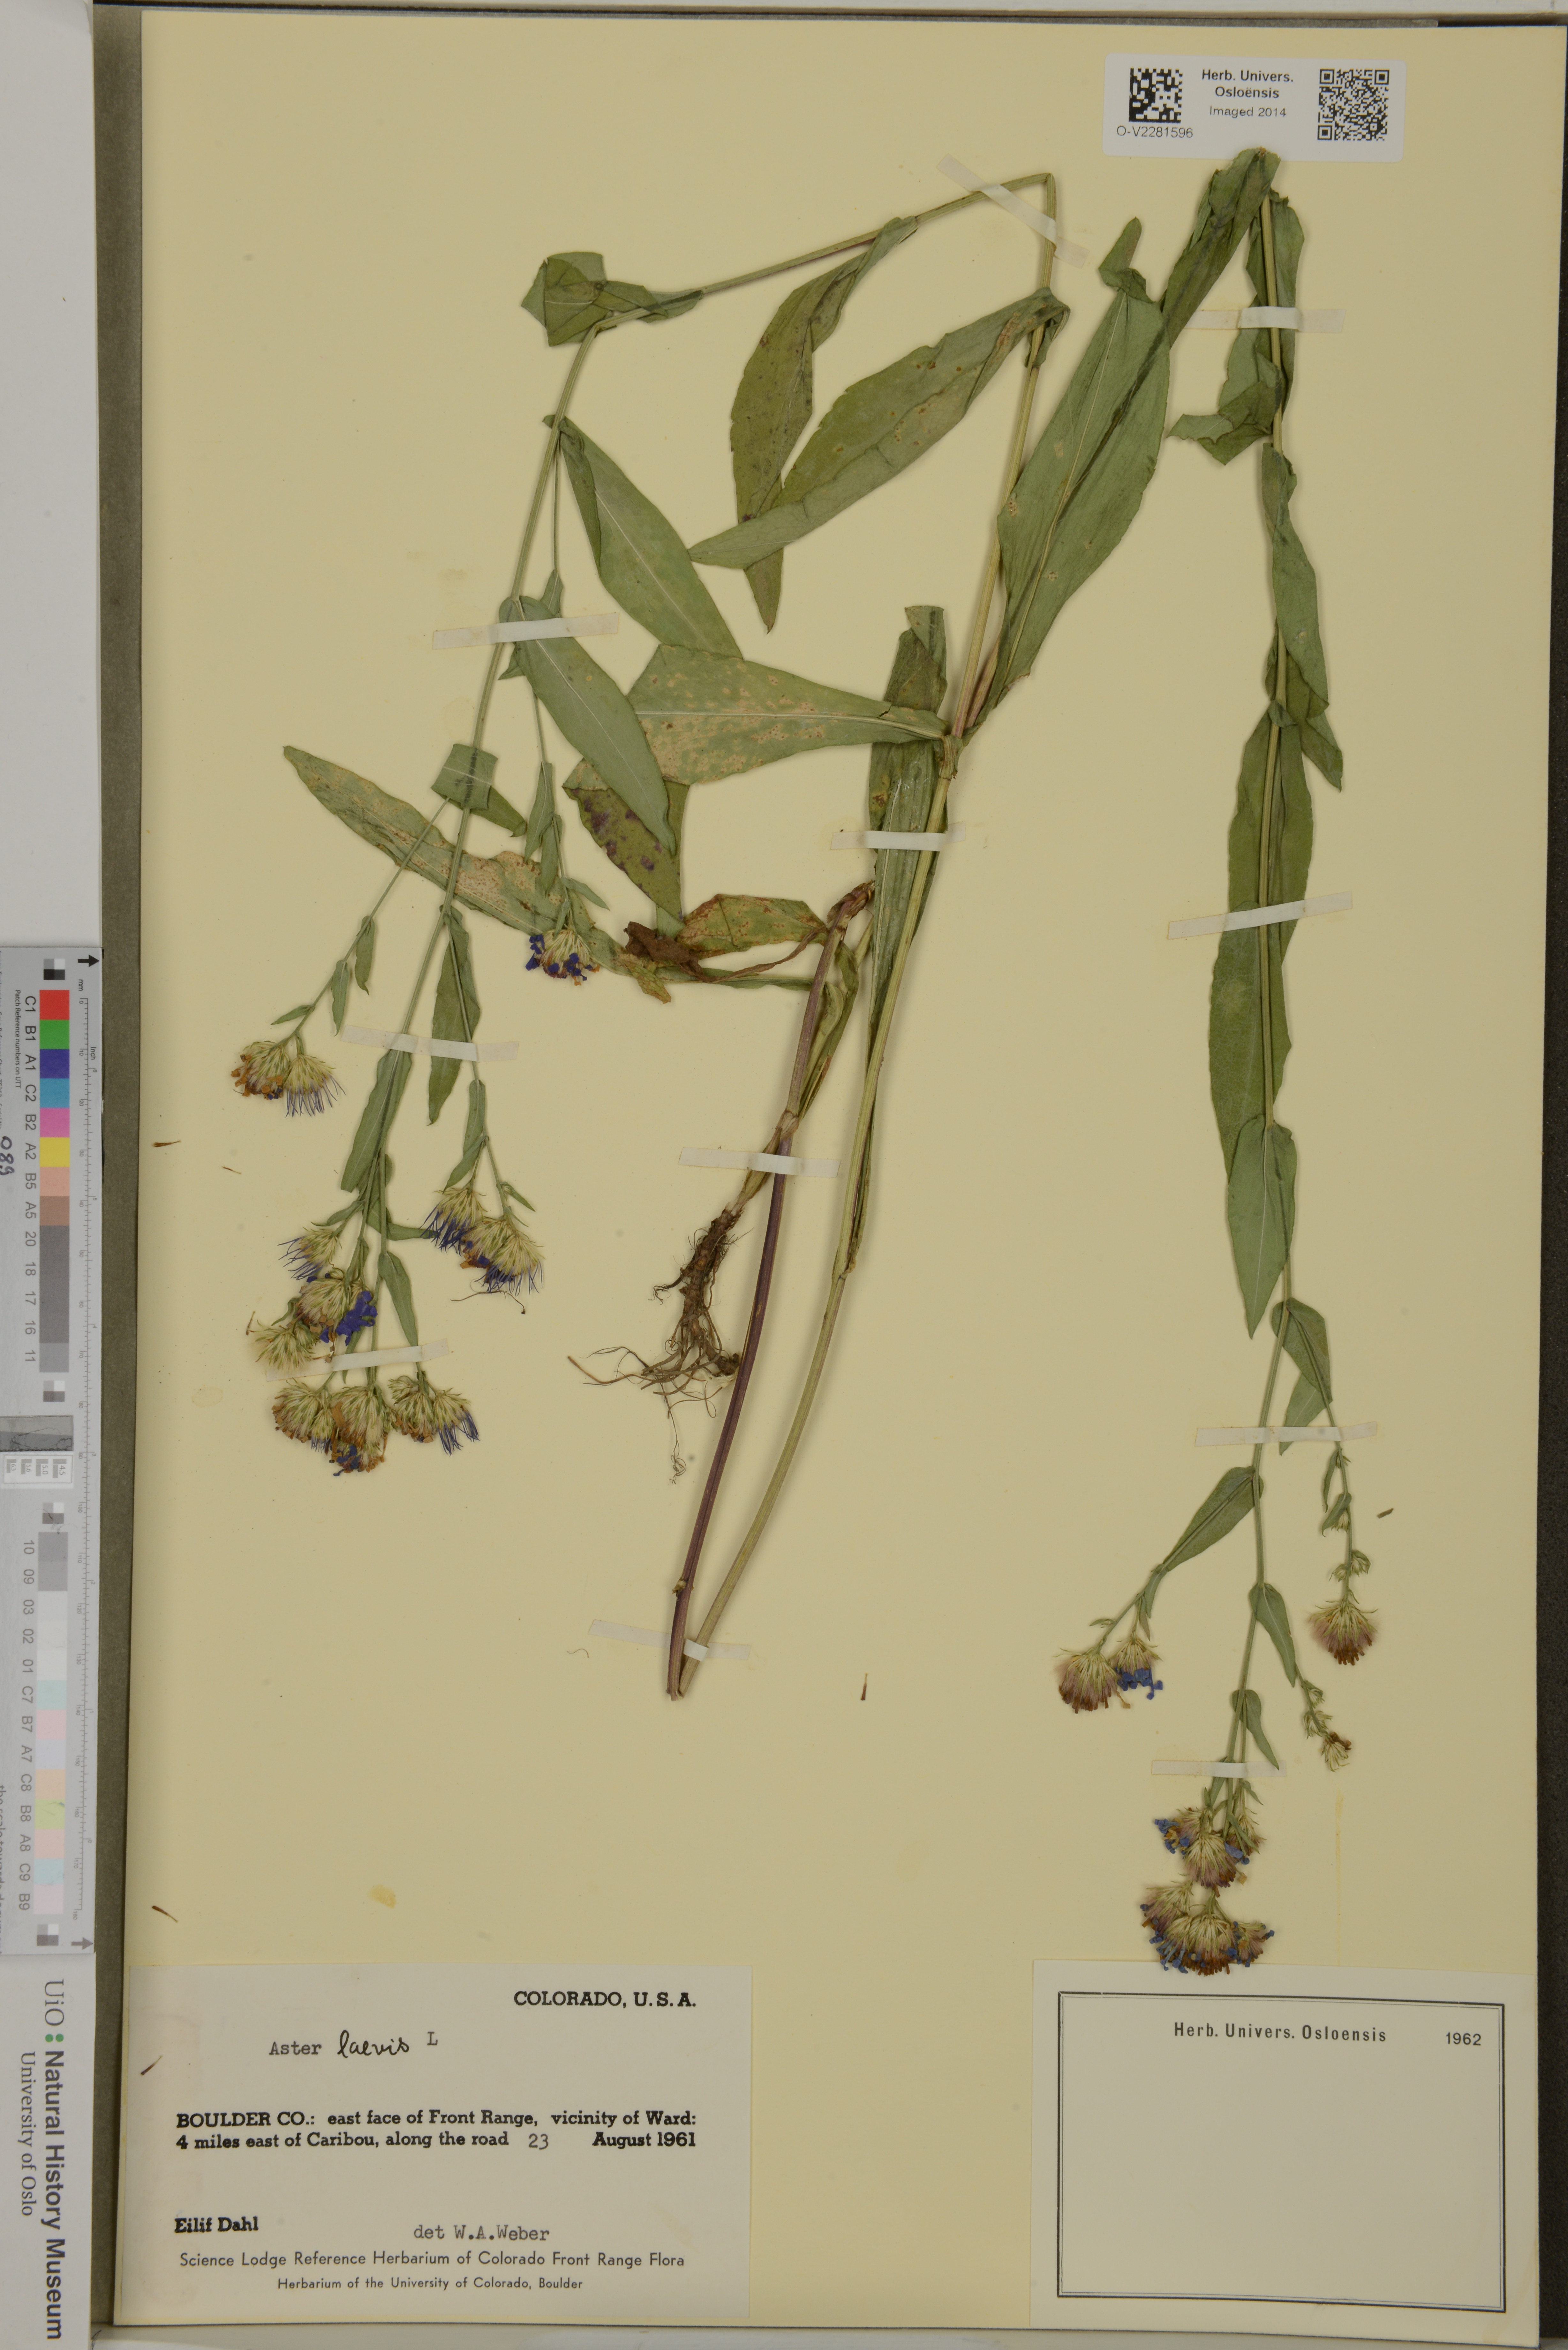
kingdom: Plantae
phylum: Tracheophyta
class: Magnoliopsida
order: Asterales
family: Asteraceae
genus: Symphyotrichum
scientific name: Symphyotrichum laeve
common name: Glaucous aster
